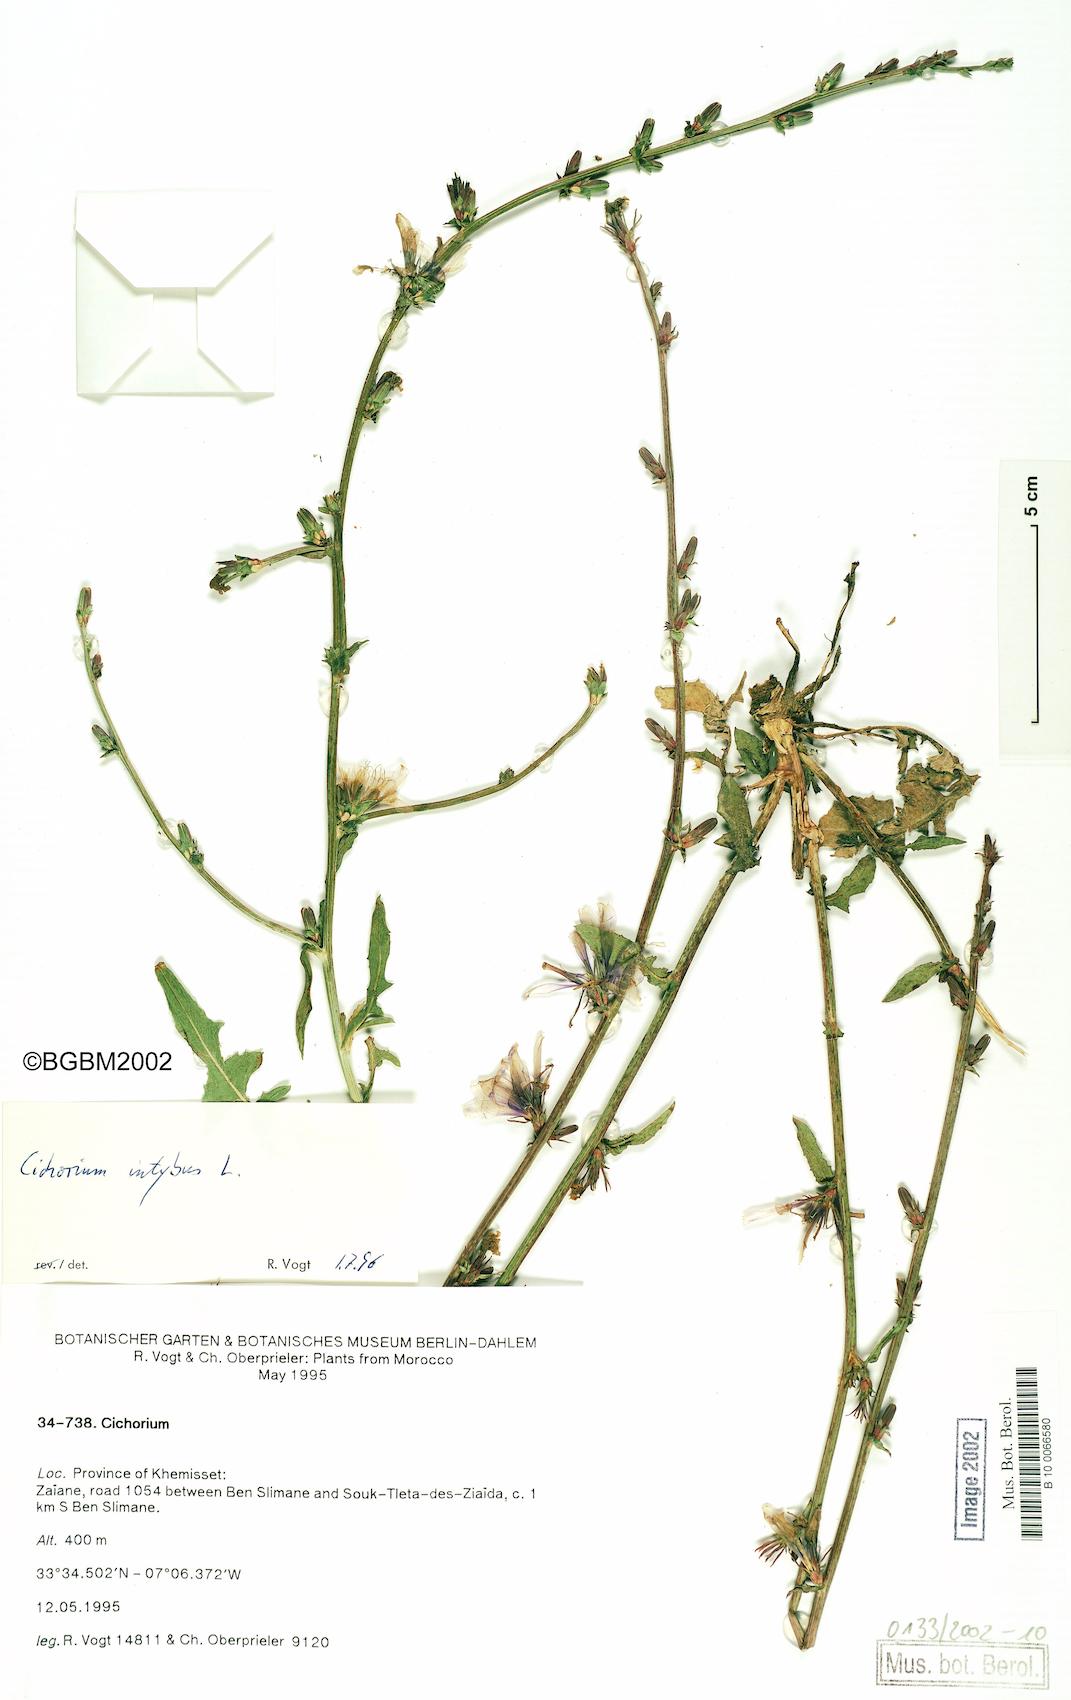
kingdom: Plantae
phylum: Tracheophyta
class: Magnoliopsida
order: Asterales
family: Asteraceae
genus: Cichorium
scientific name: Cichorium intybus
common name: Chicory
